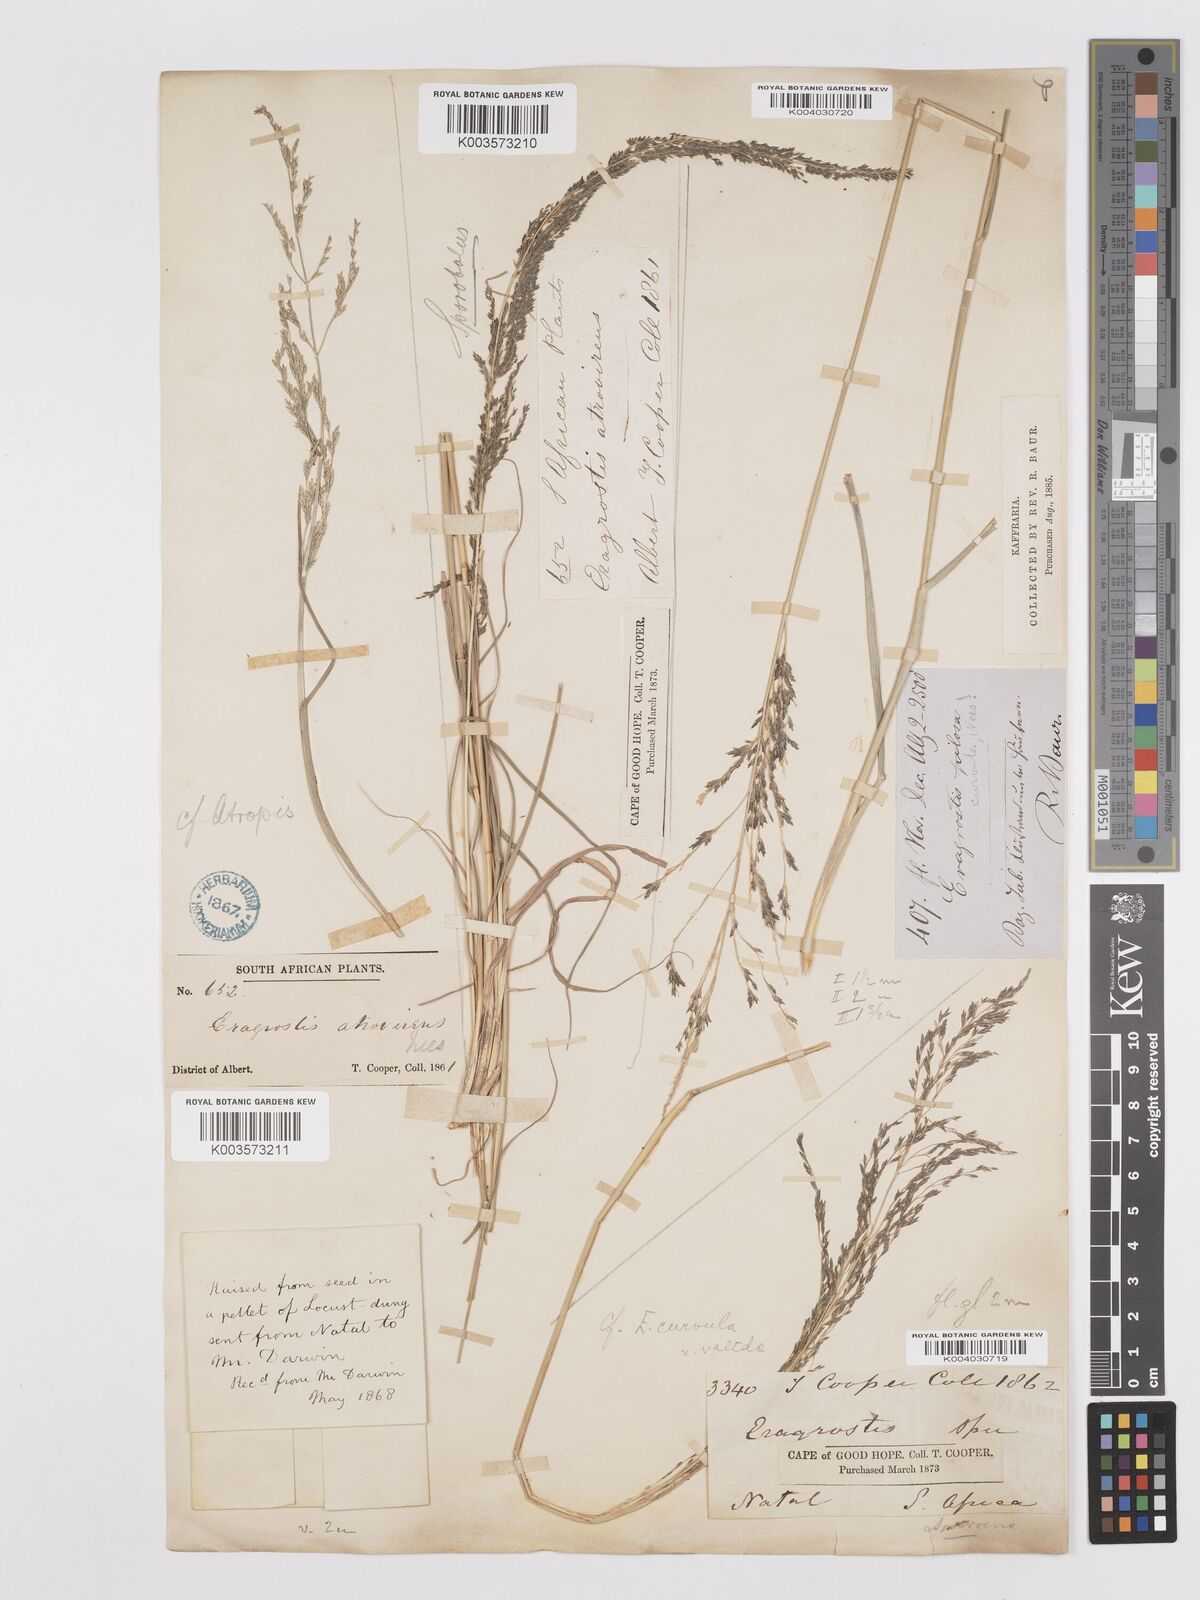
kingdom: Plantae
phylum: Tracheophyta
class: Liliopsida
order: Poales
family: Poaceae
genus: Eragrostis
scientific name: Eragrostis curvula
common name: African love-grass
